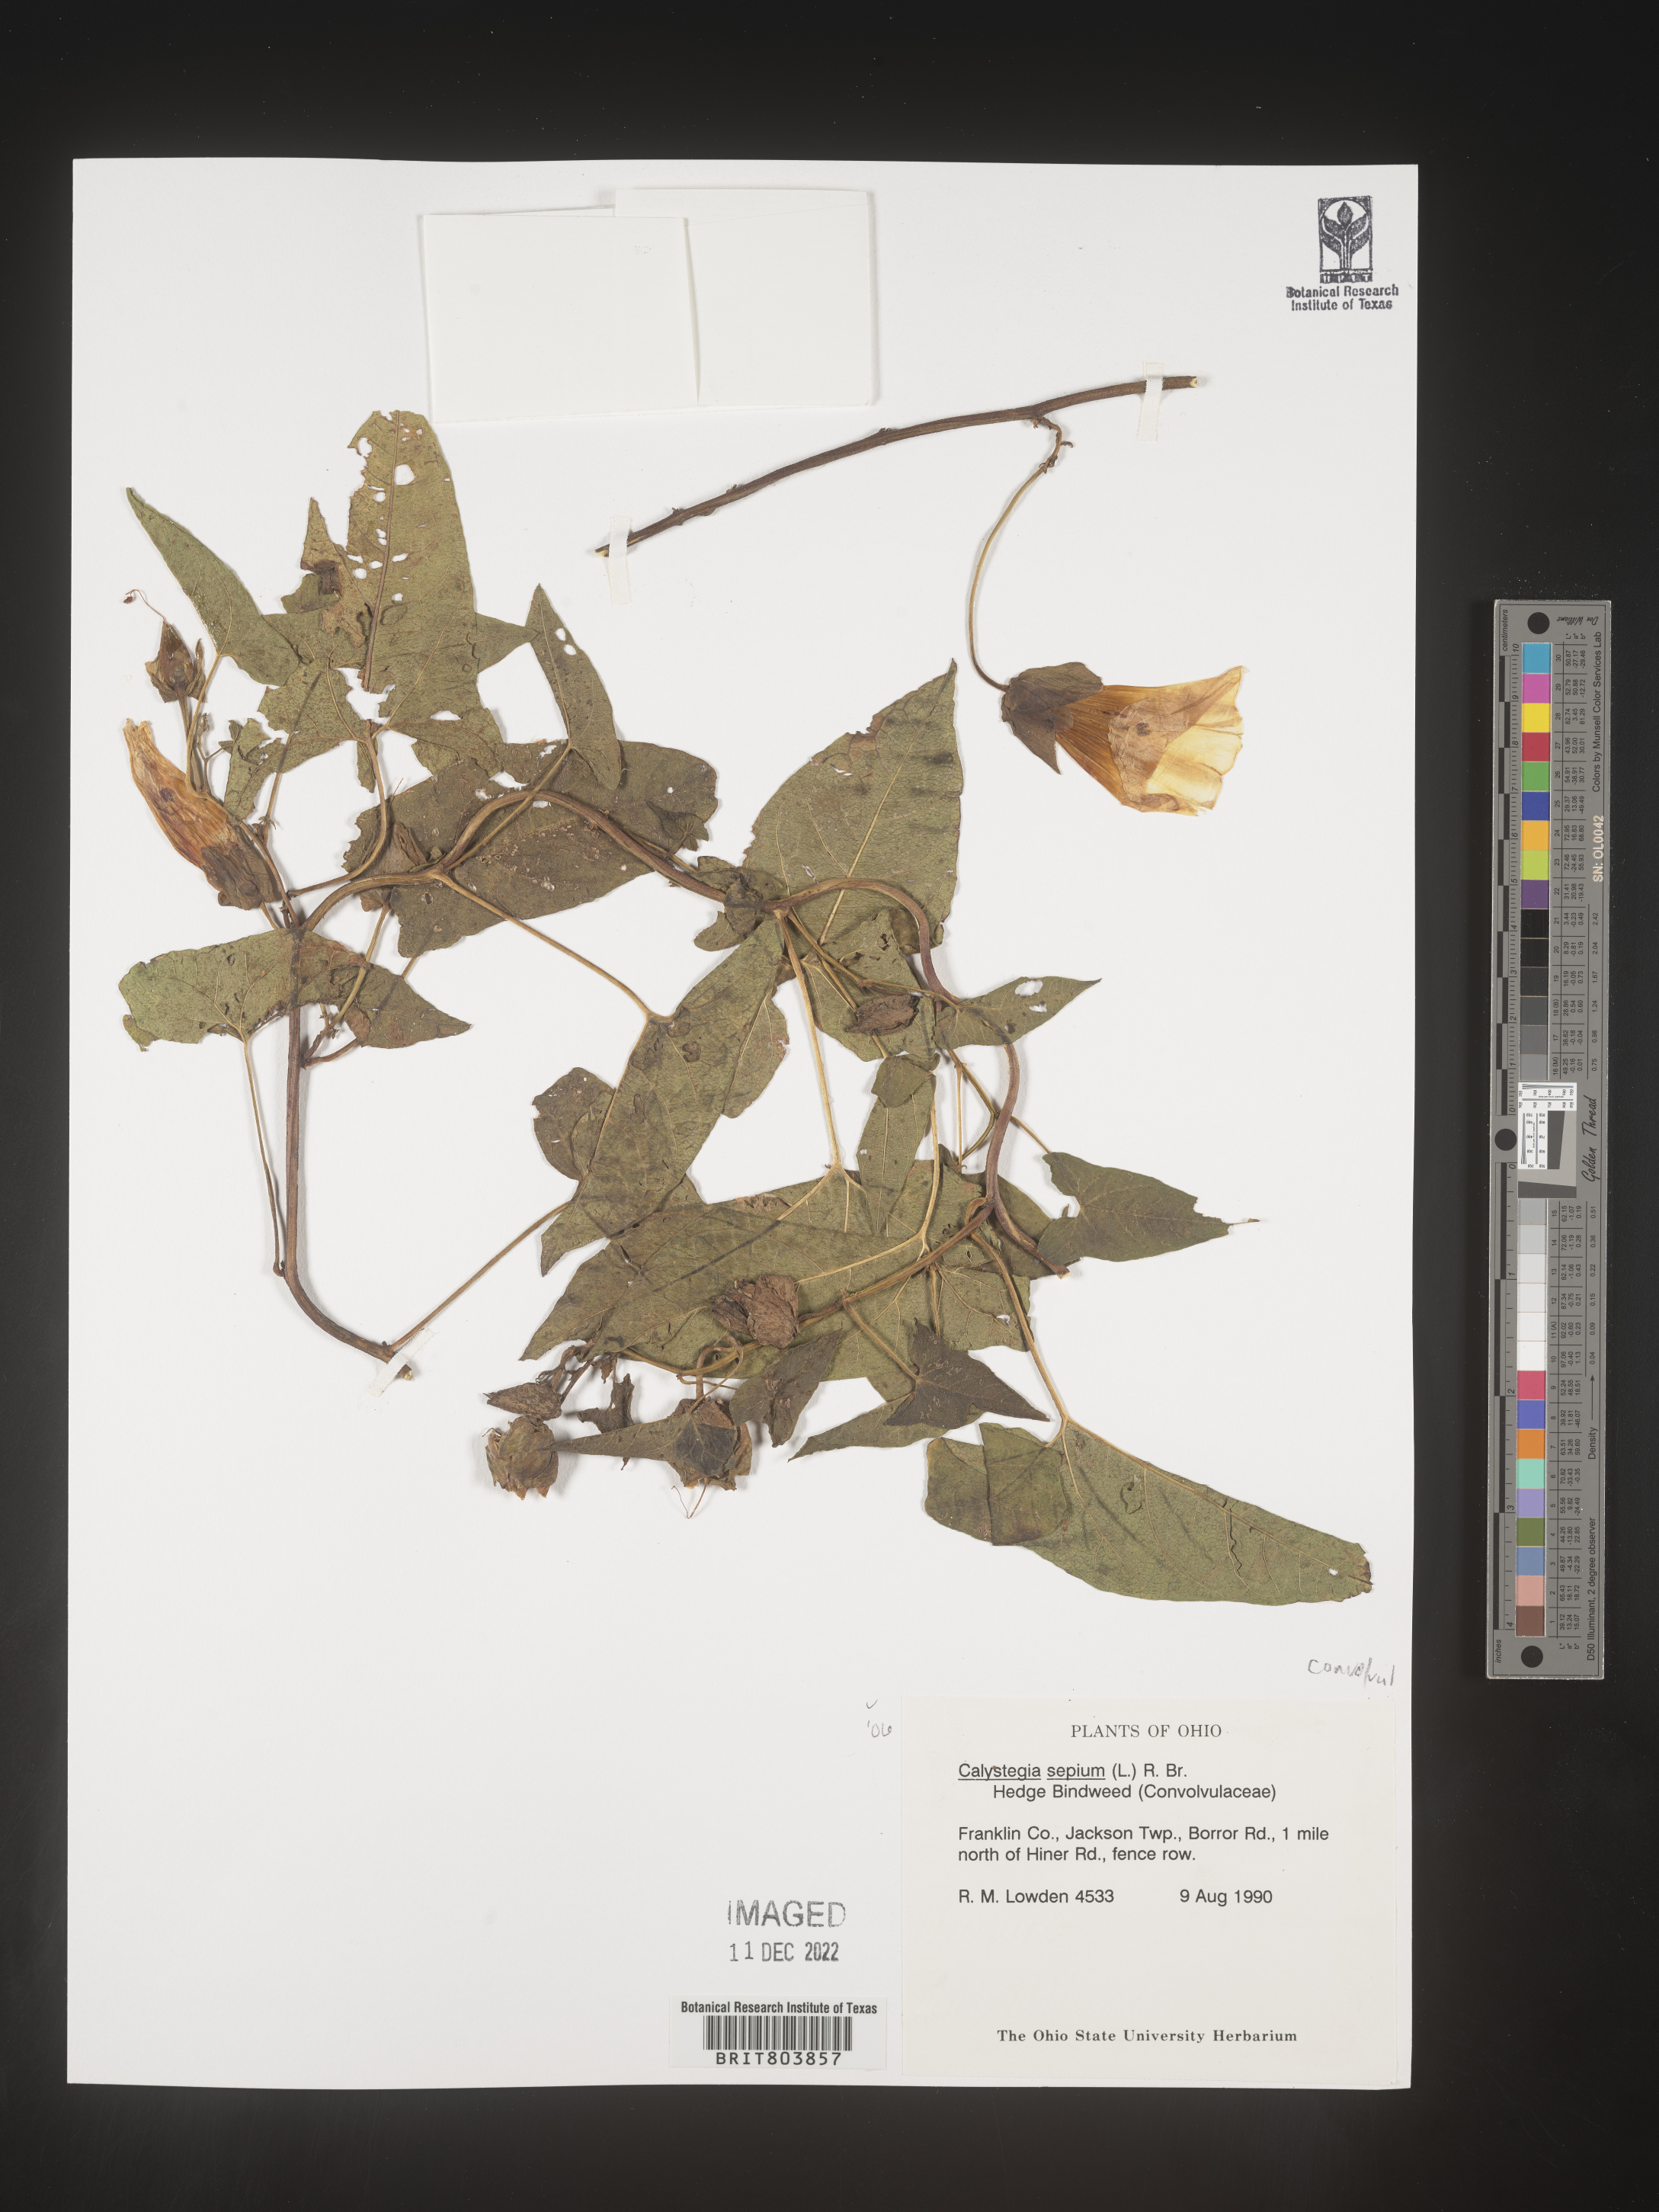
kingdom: Plantae
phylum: Tracheophyta
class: Magnoliopsida
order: Solanales
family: Convolvulaceae
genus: Calystegia
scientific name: Calystegia sepium
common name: Hedge bindweed
